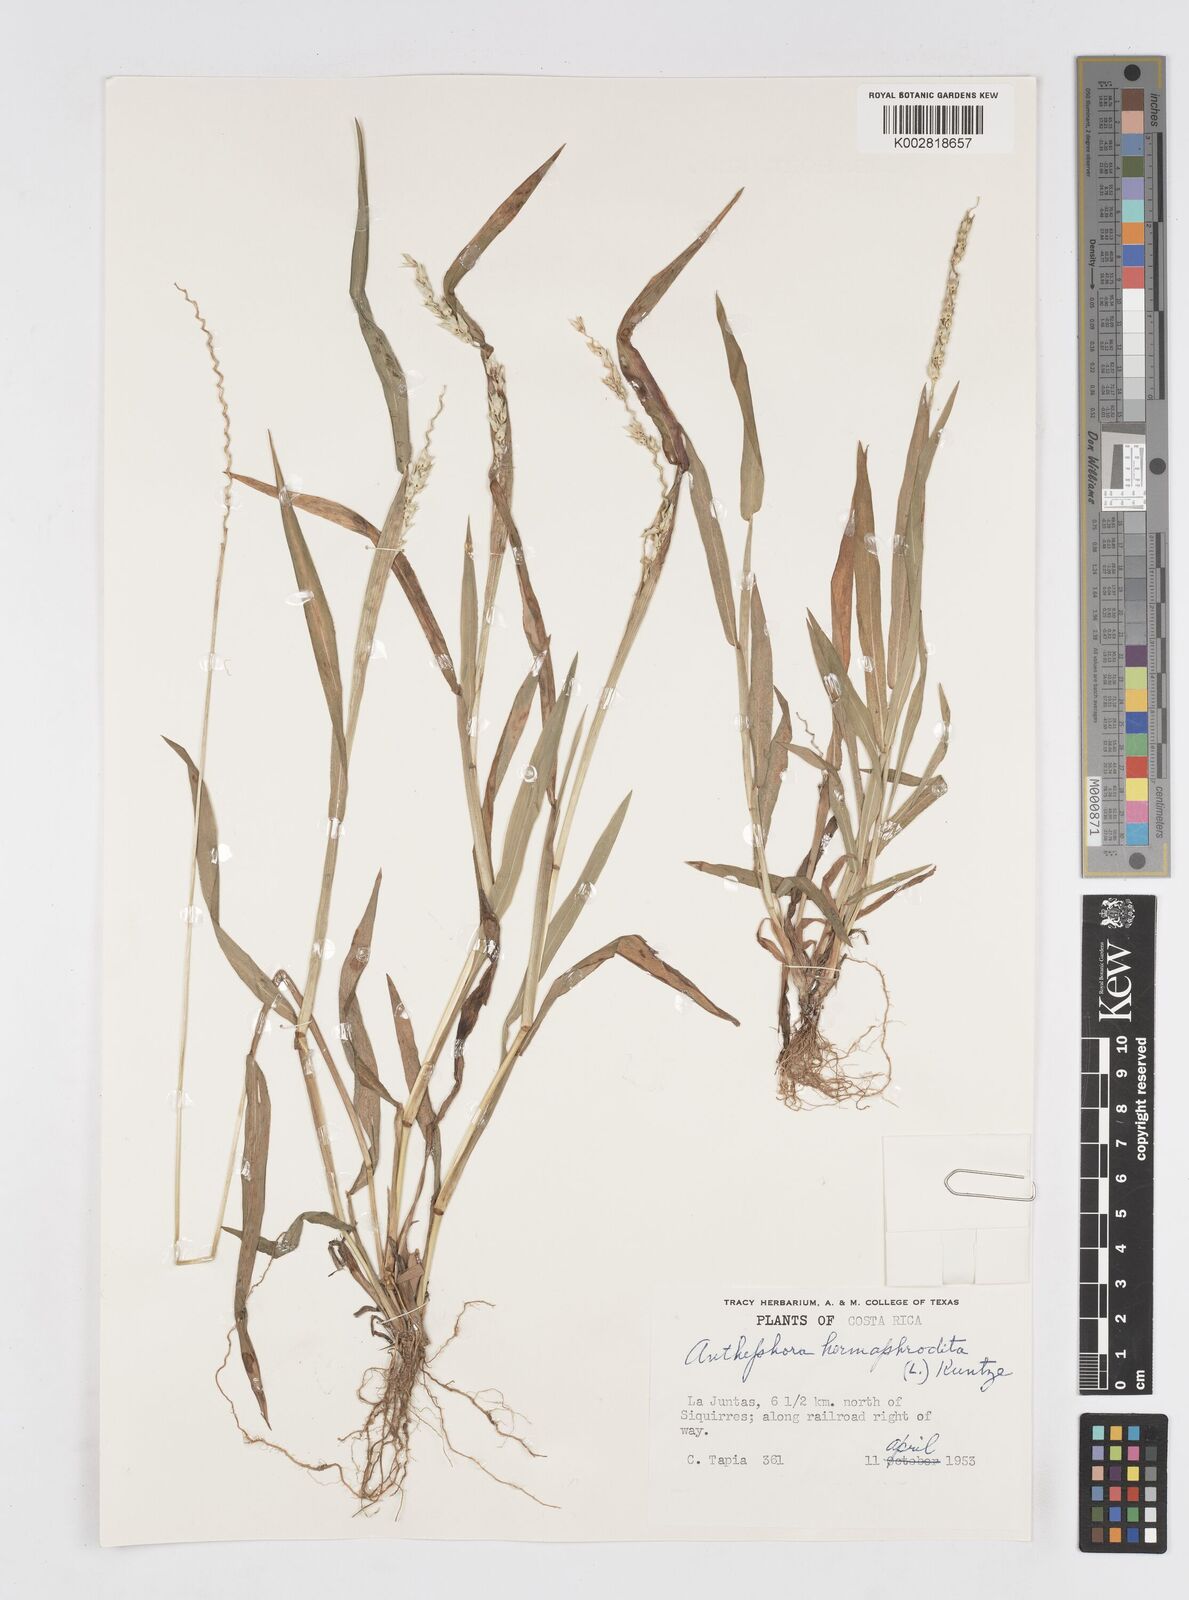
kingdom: Plantae
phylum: Tracheophyta
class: Liliopsida
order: Poales
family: Poaceae
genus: Anthephora
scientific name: Anthephora hermaphrodita
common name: Oldfield grass
